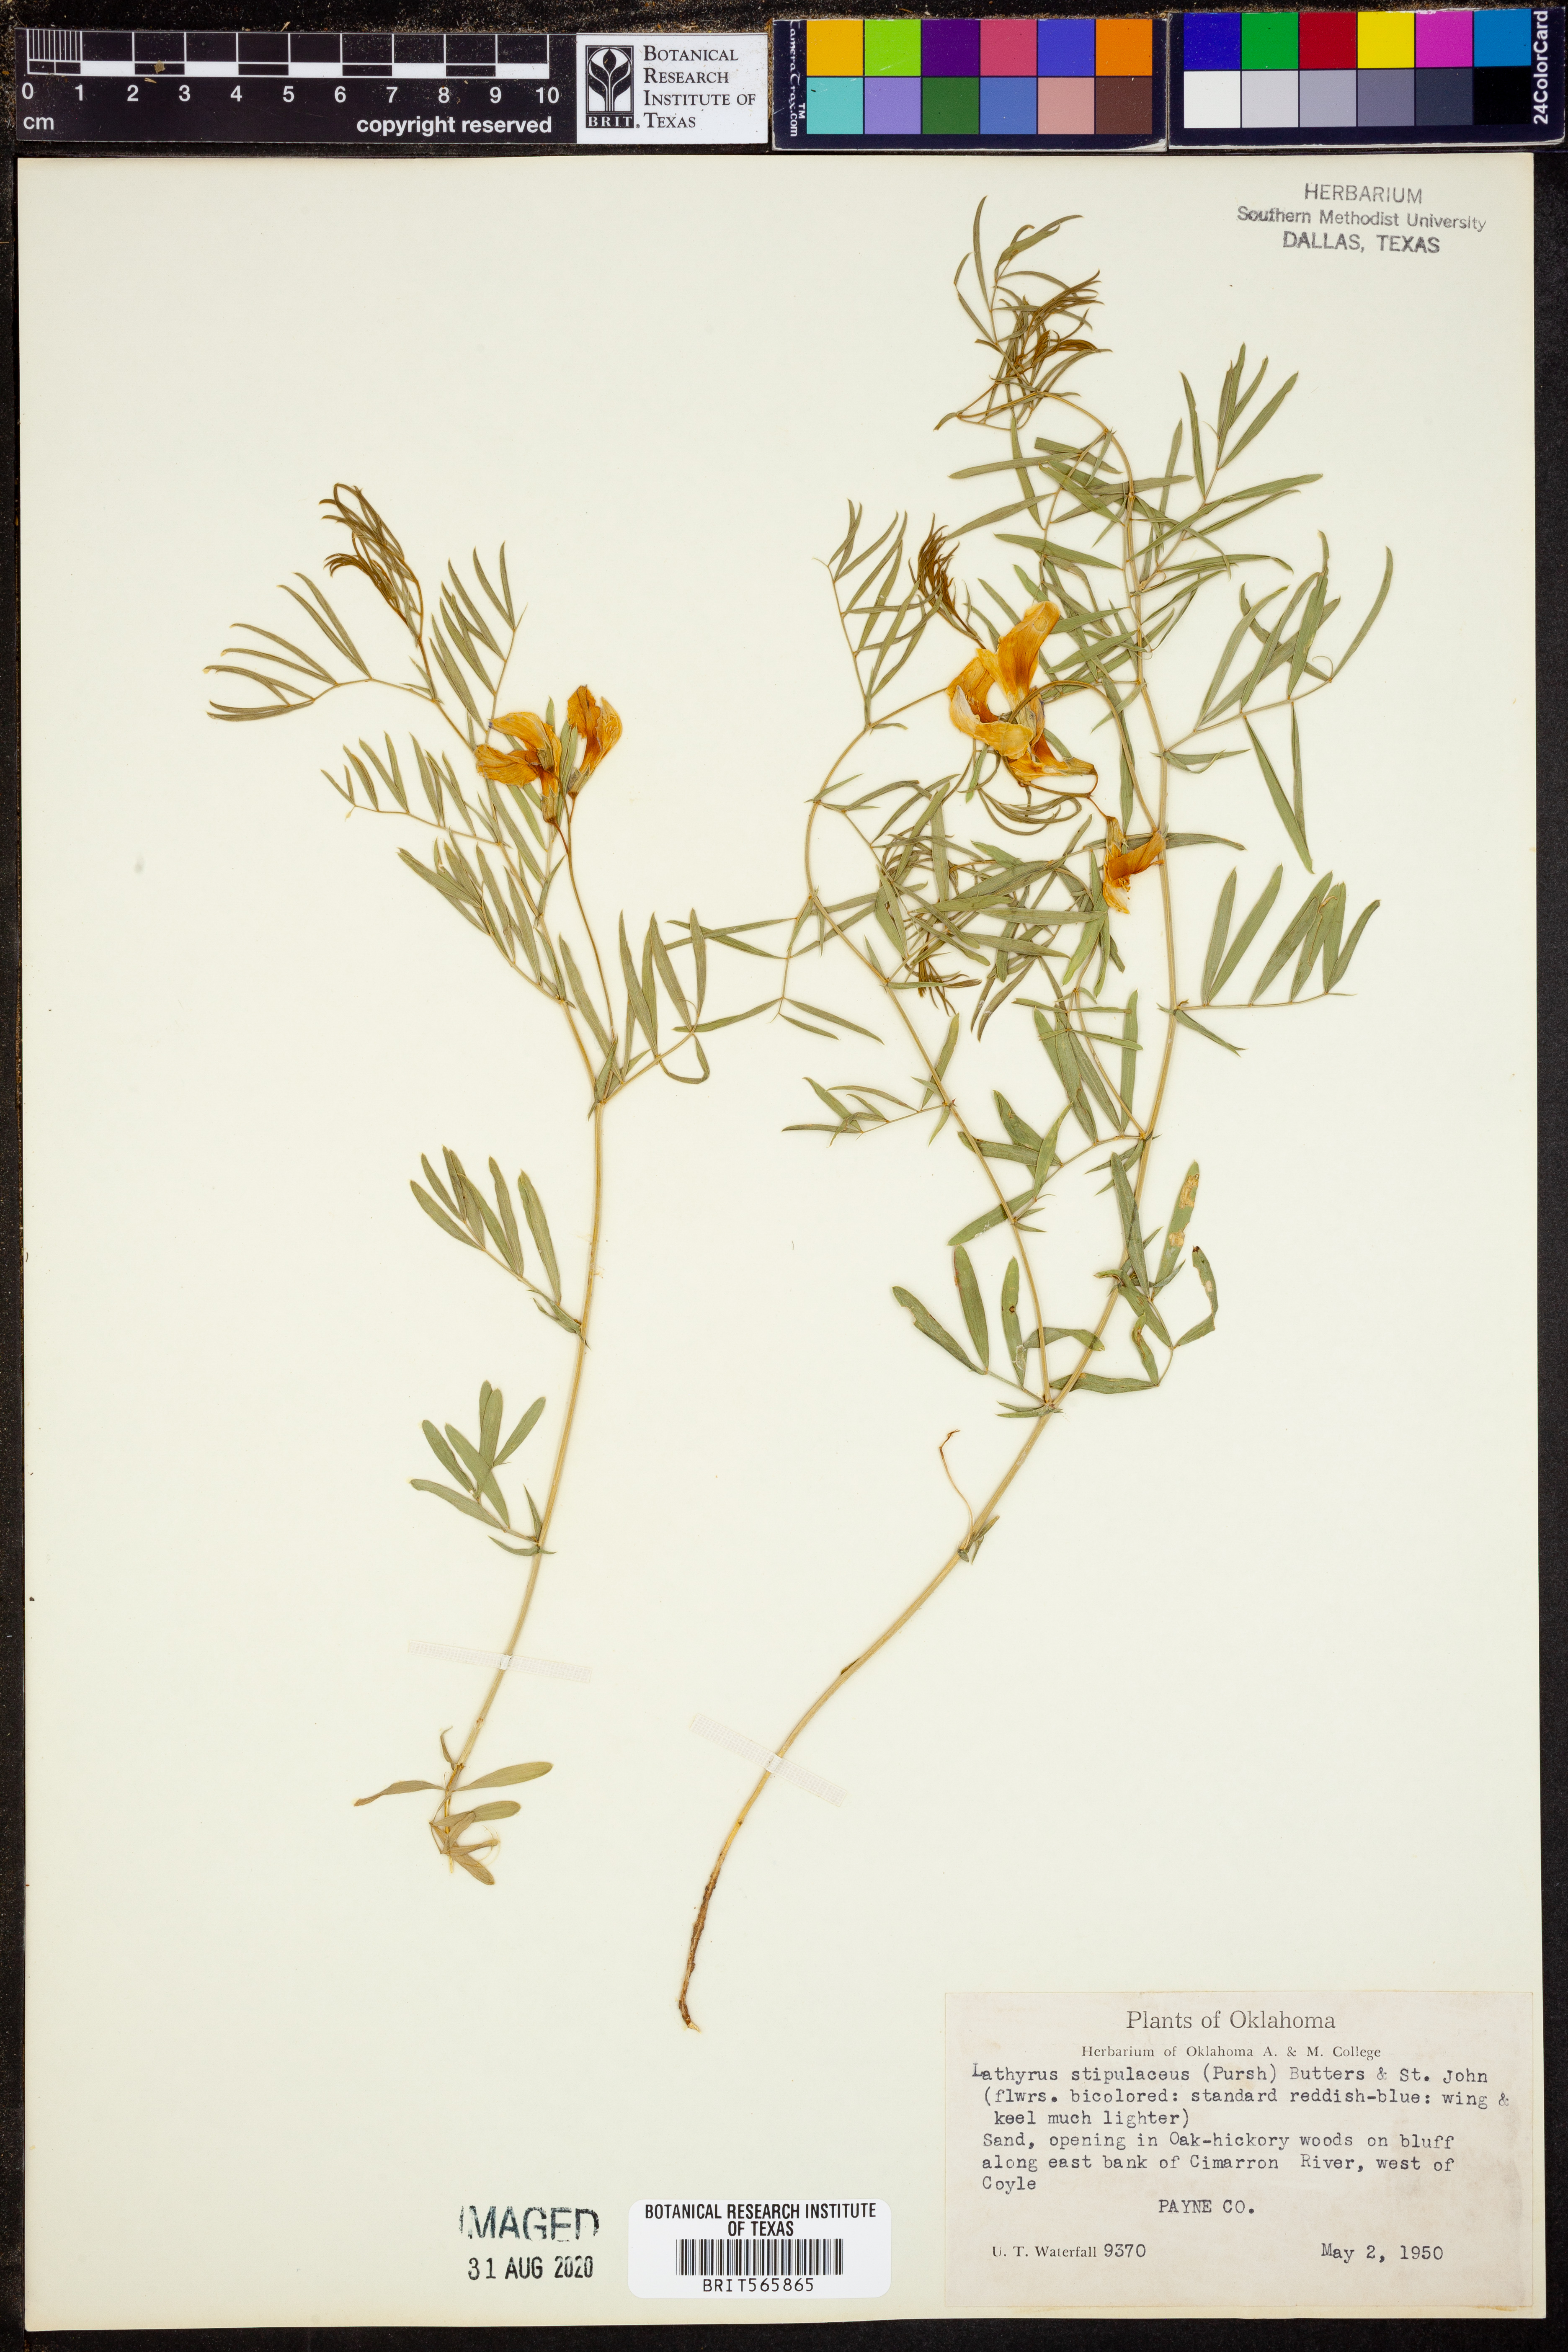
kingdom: Plantae
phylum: Tracheophyta
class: Magnoliopsida
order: Fabales
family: Fabaceae
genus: Lathyrus
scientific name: Lathyrus decaphyllus
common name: Prairie vetchling
